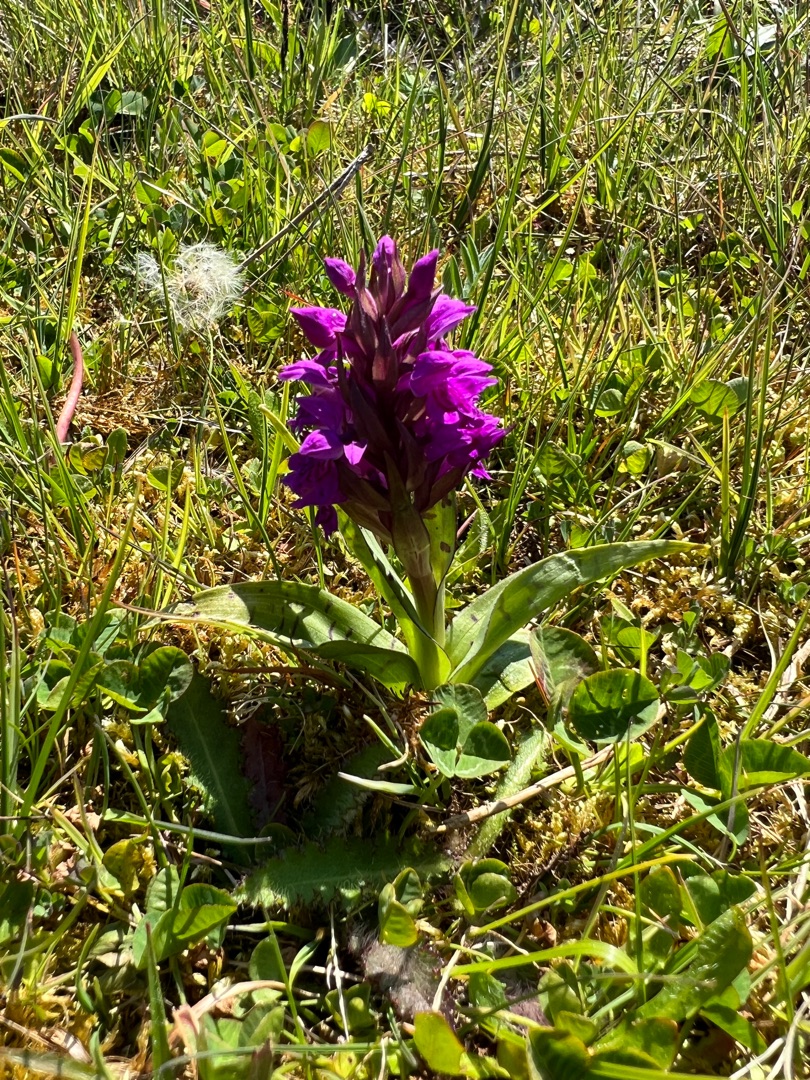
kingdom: Plantae
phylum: Tracheophyta
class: Liliopsida
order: Asparagales
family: Orchidaceae
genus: Dactylorhiza
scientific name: Dactylorhiza majalis
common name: Maj-gøgeurt
